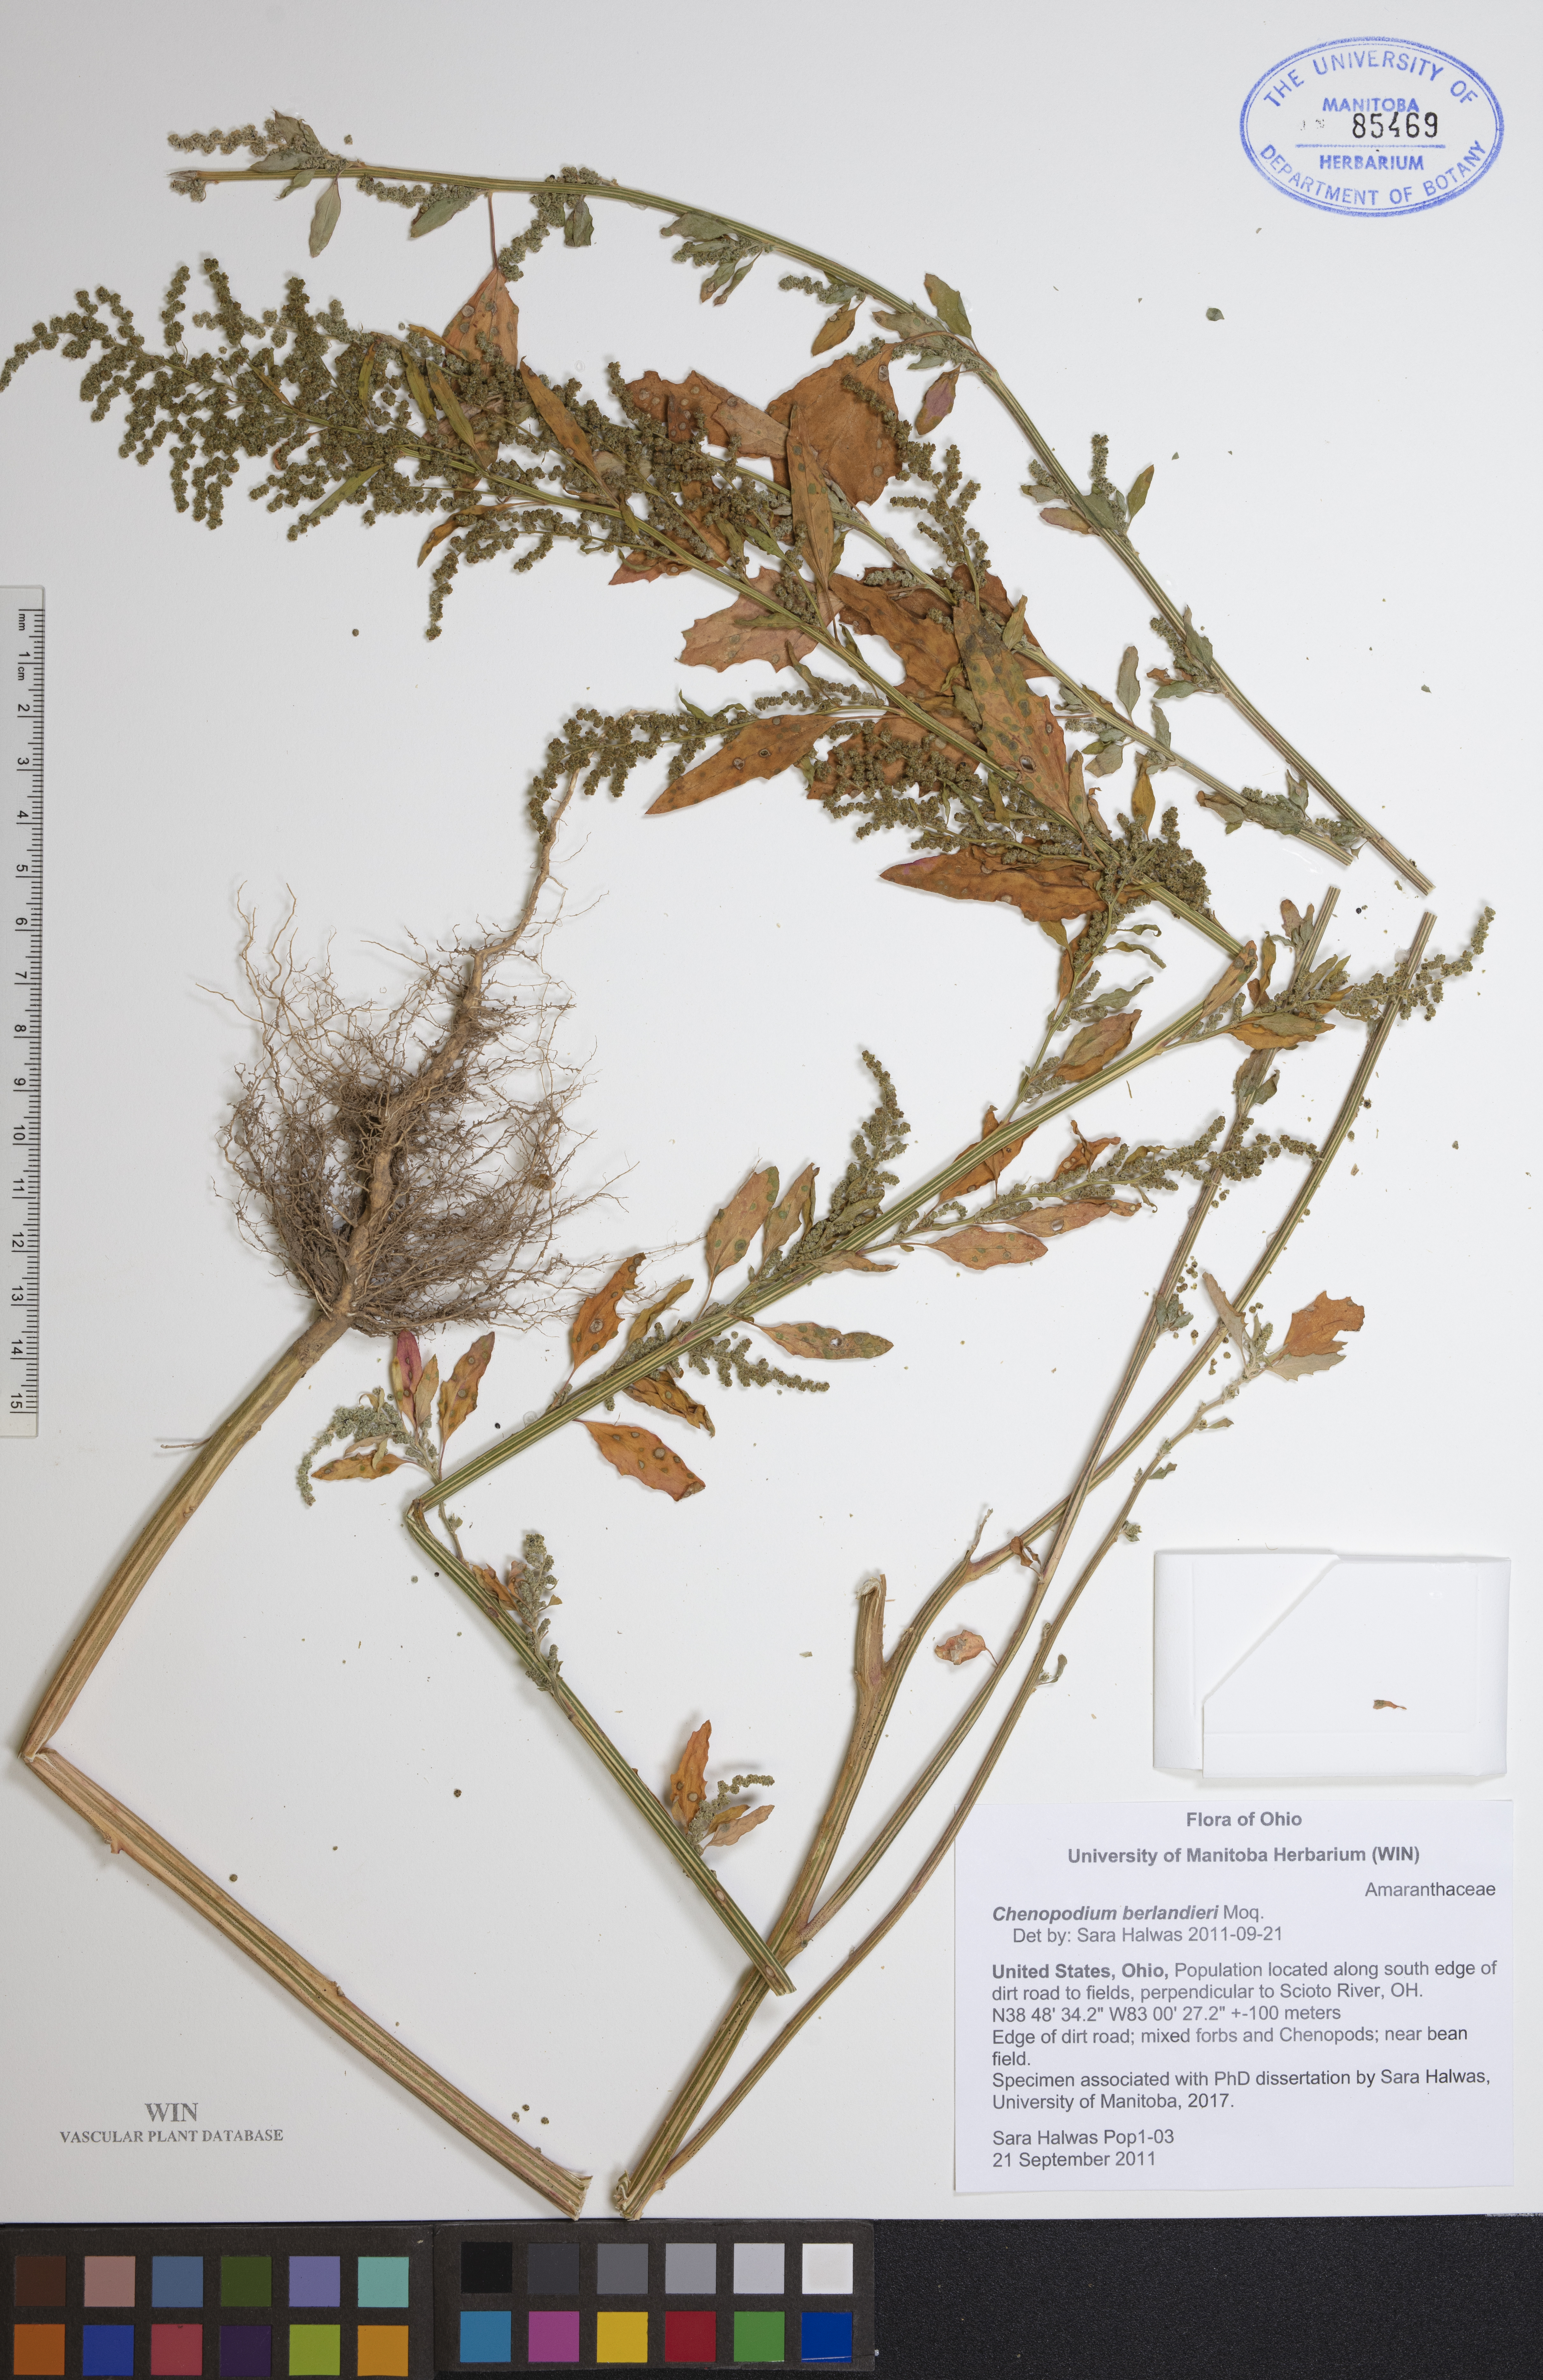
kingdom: Plantae
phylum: Tracheophyta
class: Magnoliopsida
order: Caryophyllales
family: Amaranthaceae
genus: Chenopodium
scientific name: Chenopodium berlandieri
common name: Pit-seed goosefoot
